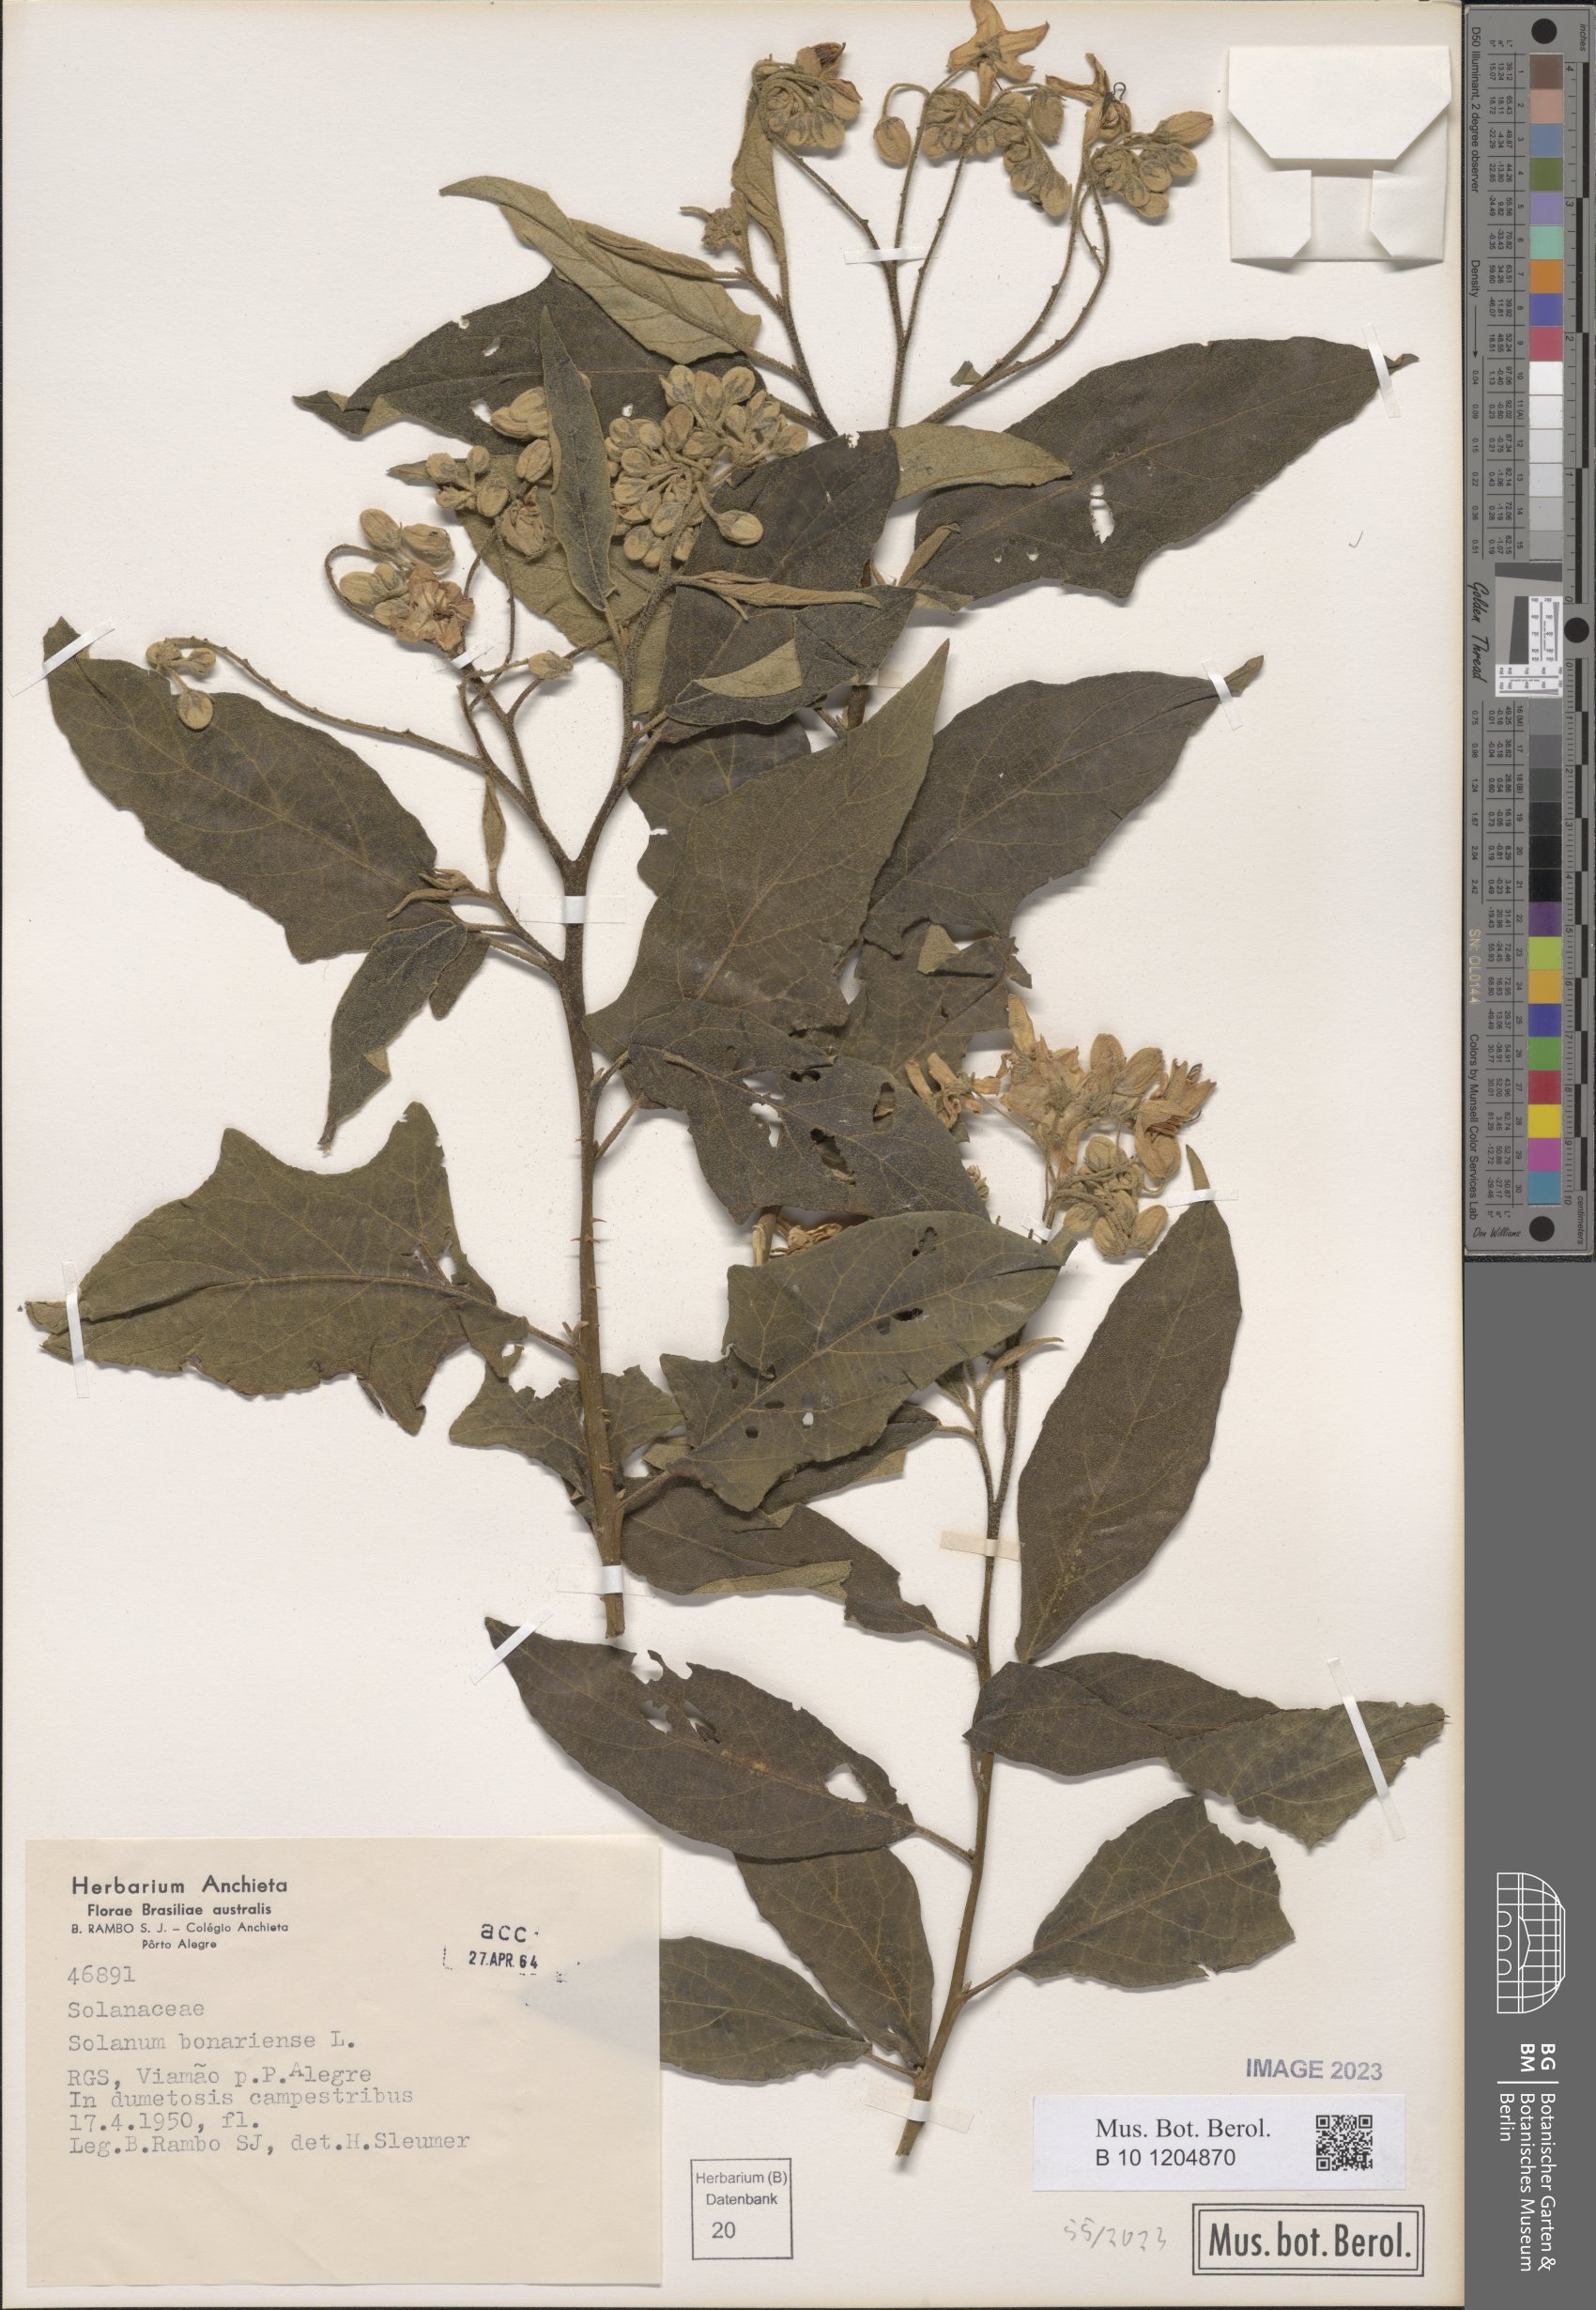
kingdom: Plantae
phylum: Tracheophyta
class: Magnoliopsida
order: Solanales
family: Solanaceae
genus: Solanum
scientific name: Solanum bonariense
